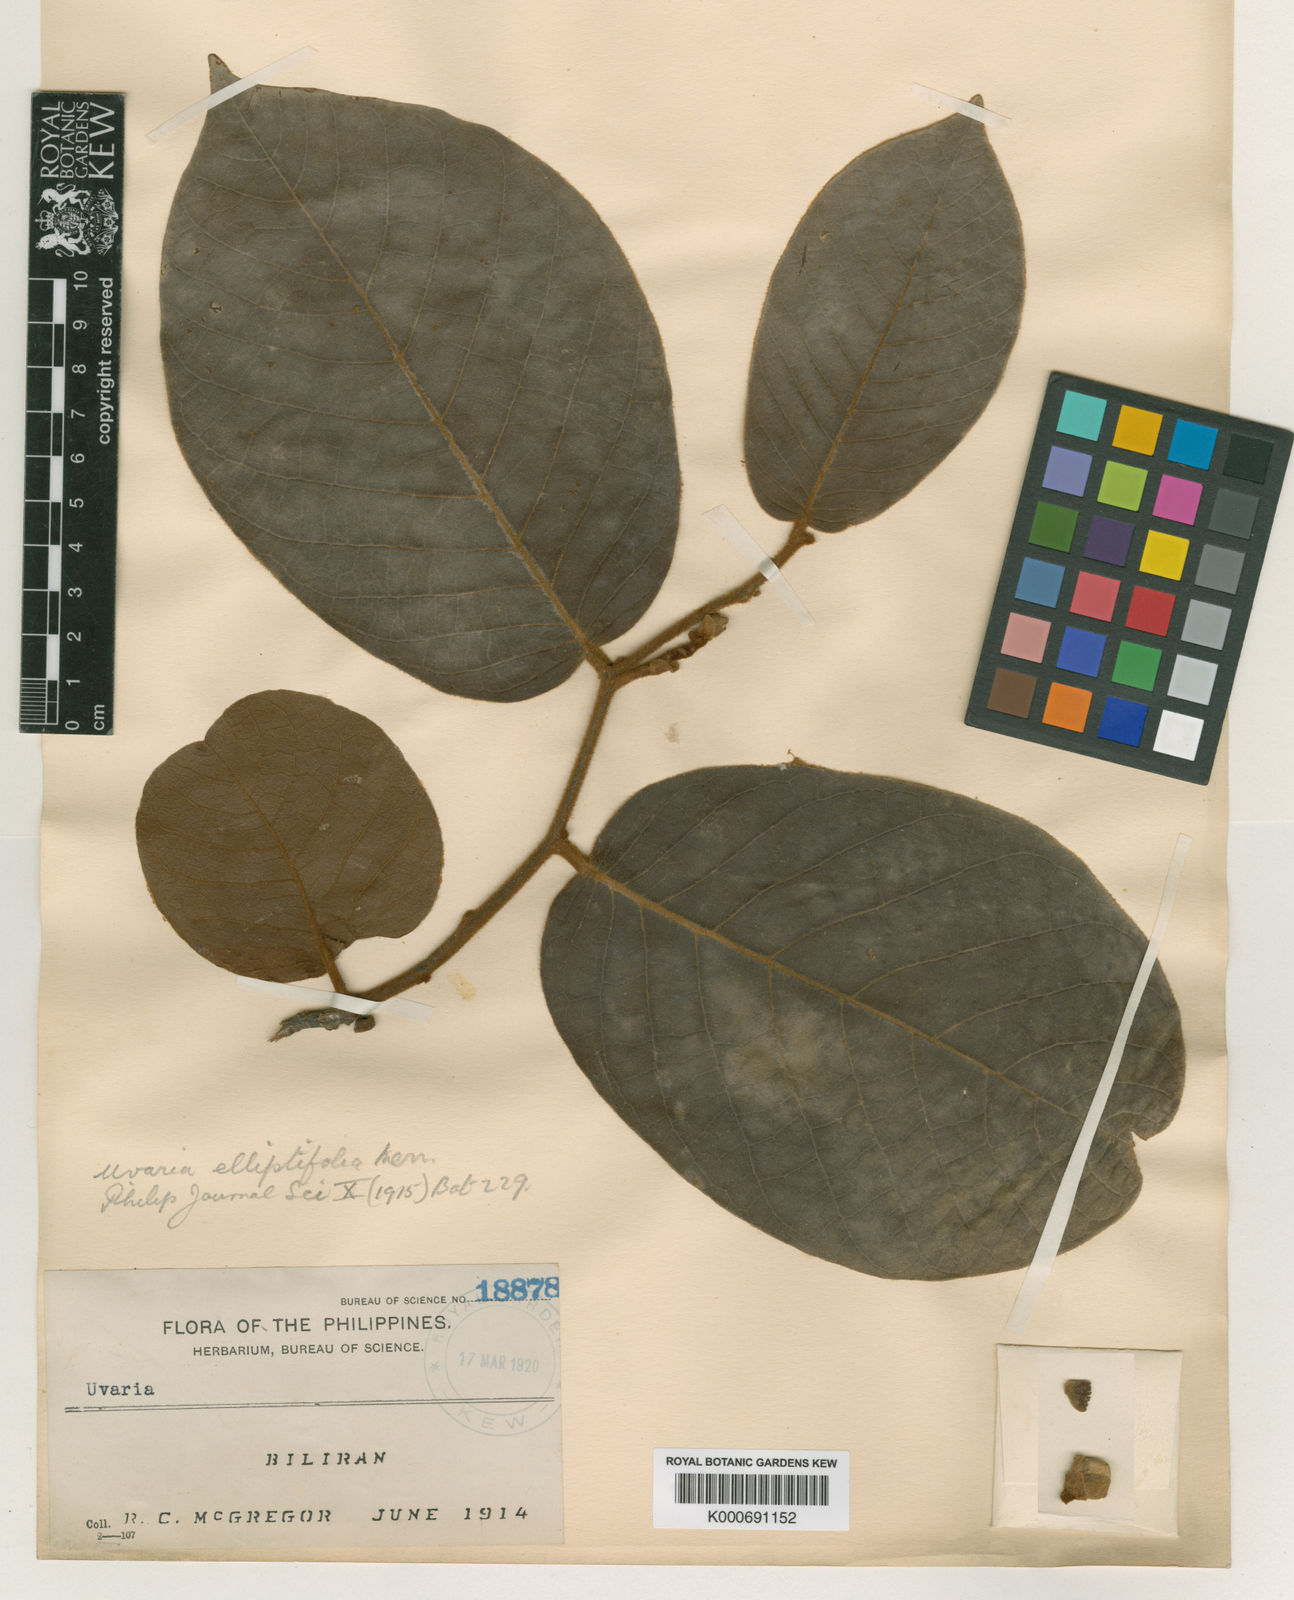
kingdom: Plantae
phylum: Tracheophyta
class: Magnoliopsida
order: Magnoliales
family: Annonaceae
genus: Uvaria
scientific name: Uvaria elliptifolia
